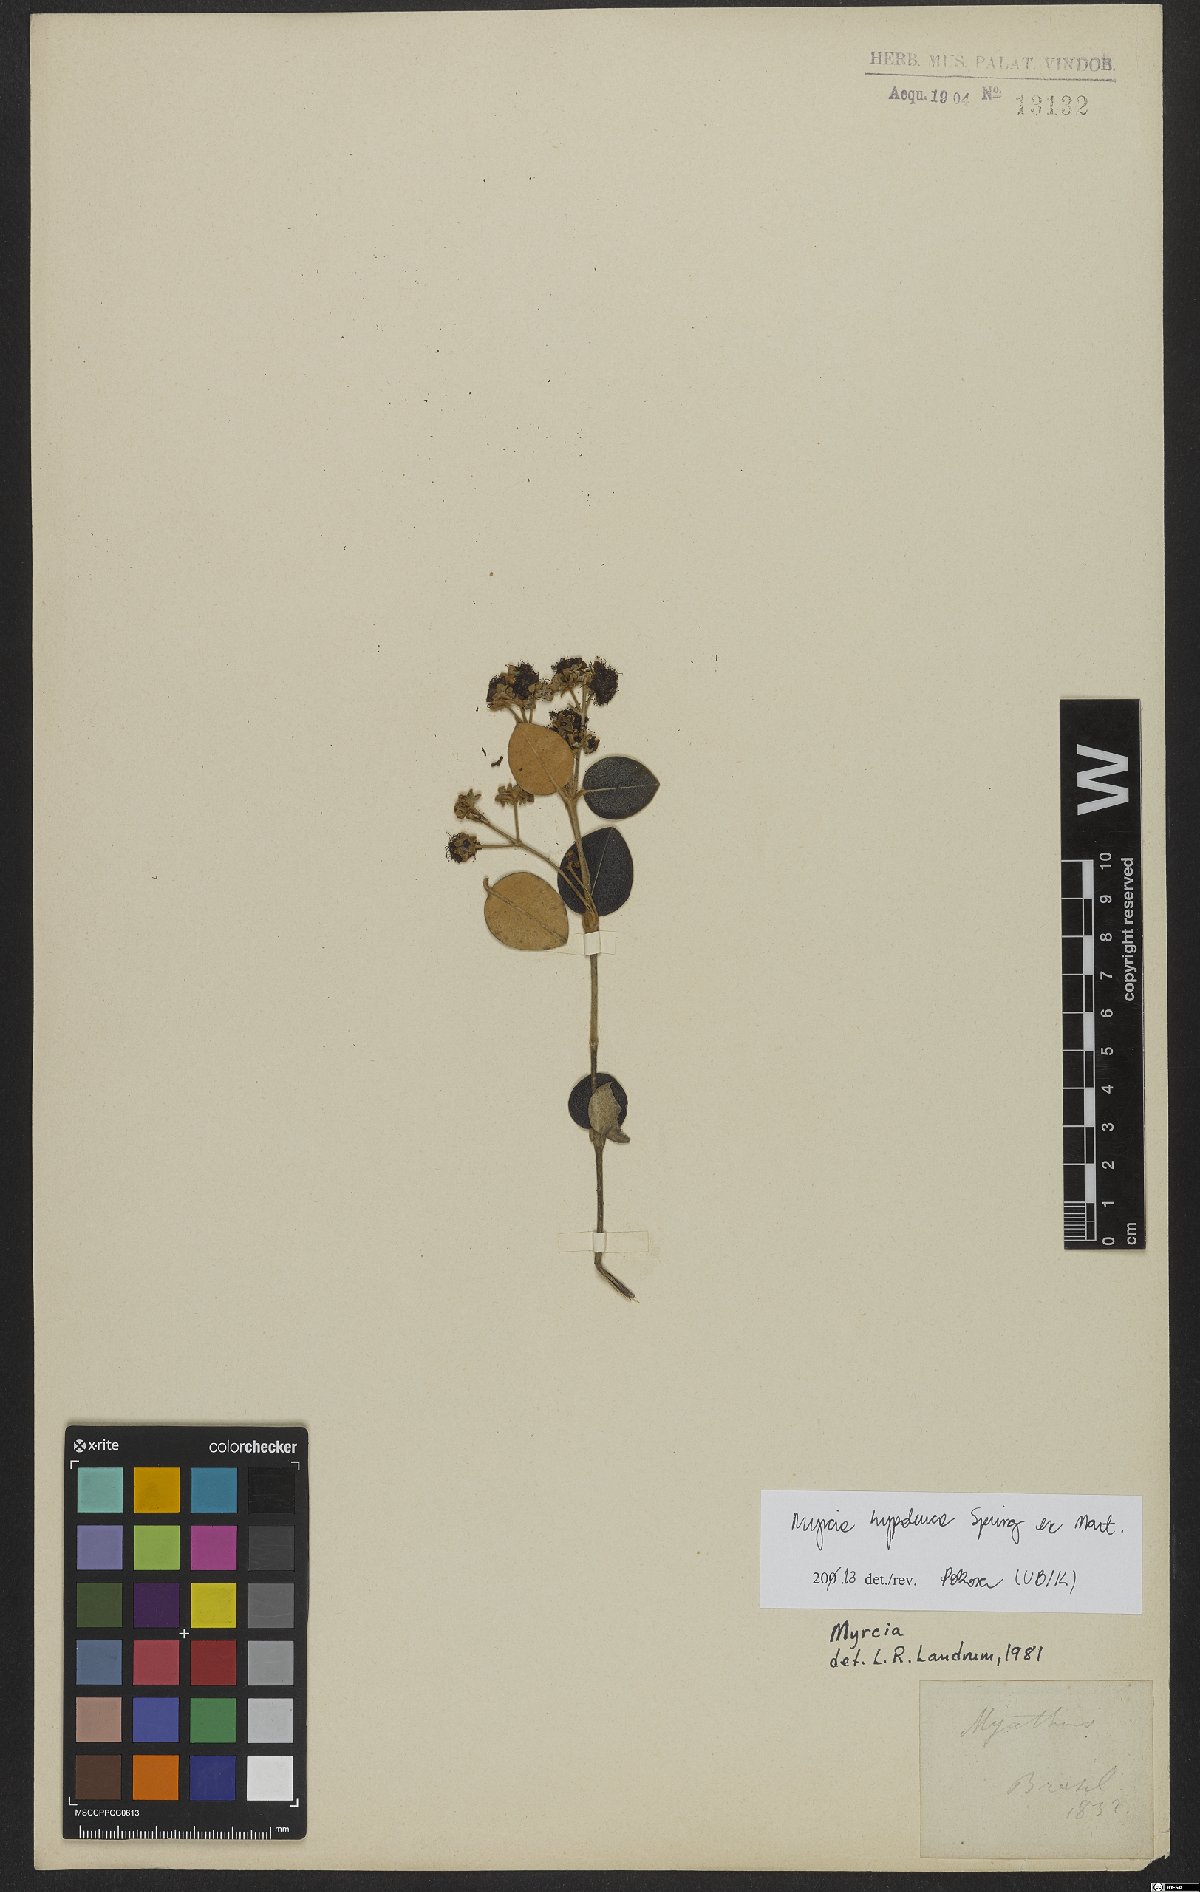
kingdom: Plantae
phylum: Tracheophyta
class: Magnoliopsida
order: Myrtales
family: Myrtaceae
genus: Myrcia
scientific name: Myrcia hypoleuca
